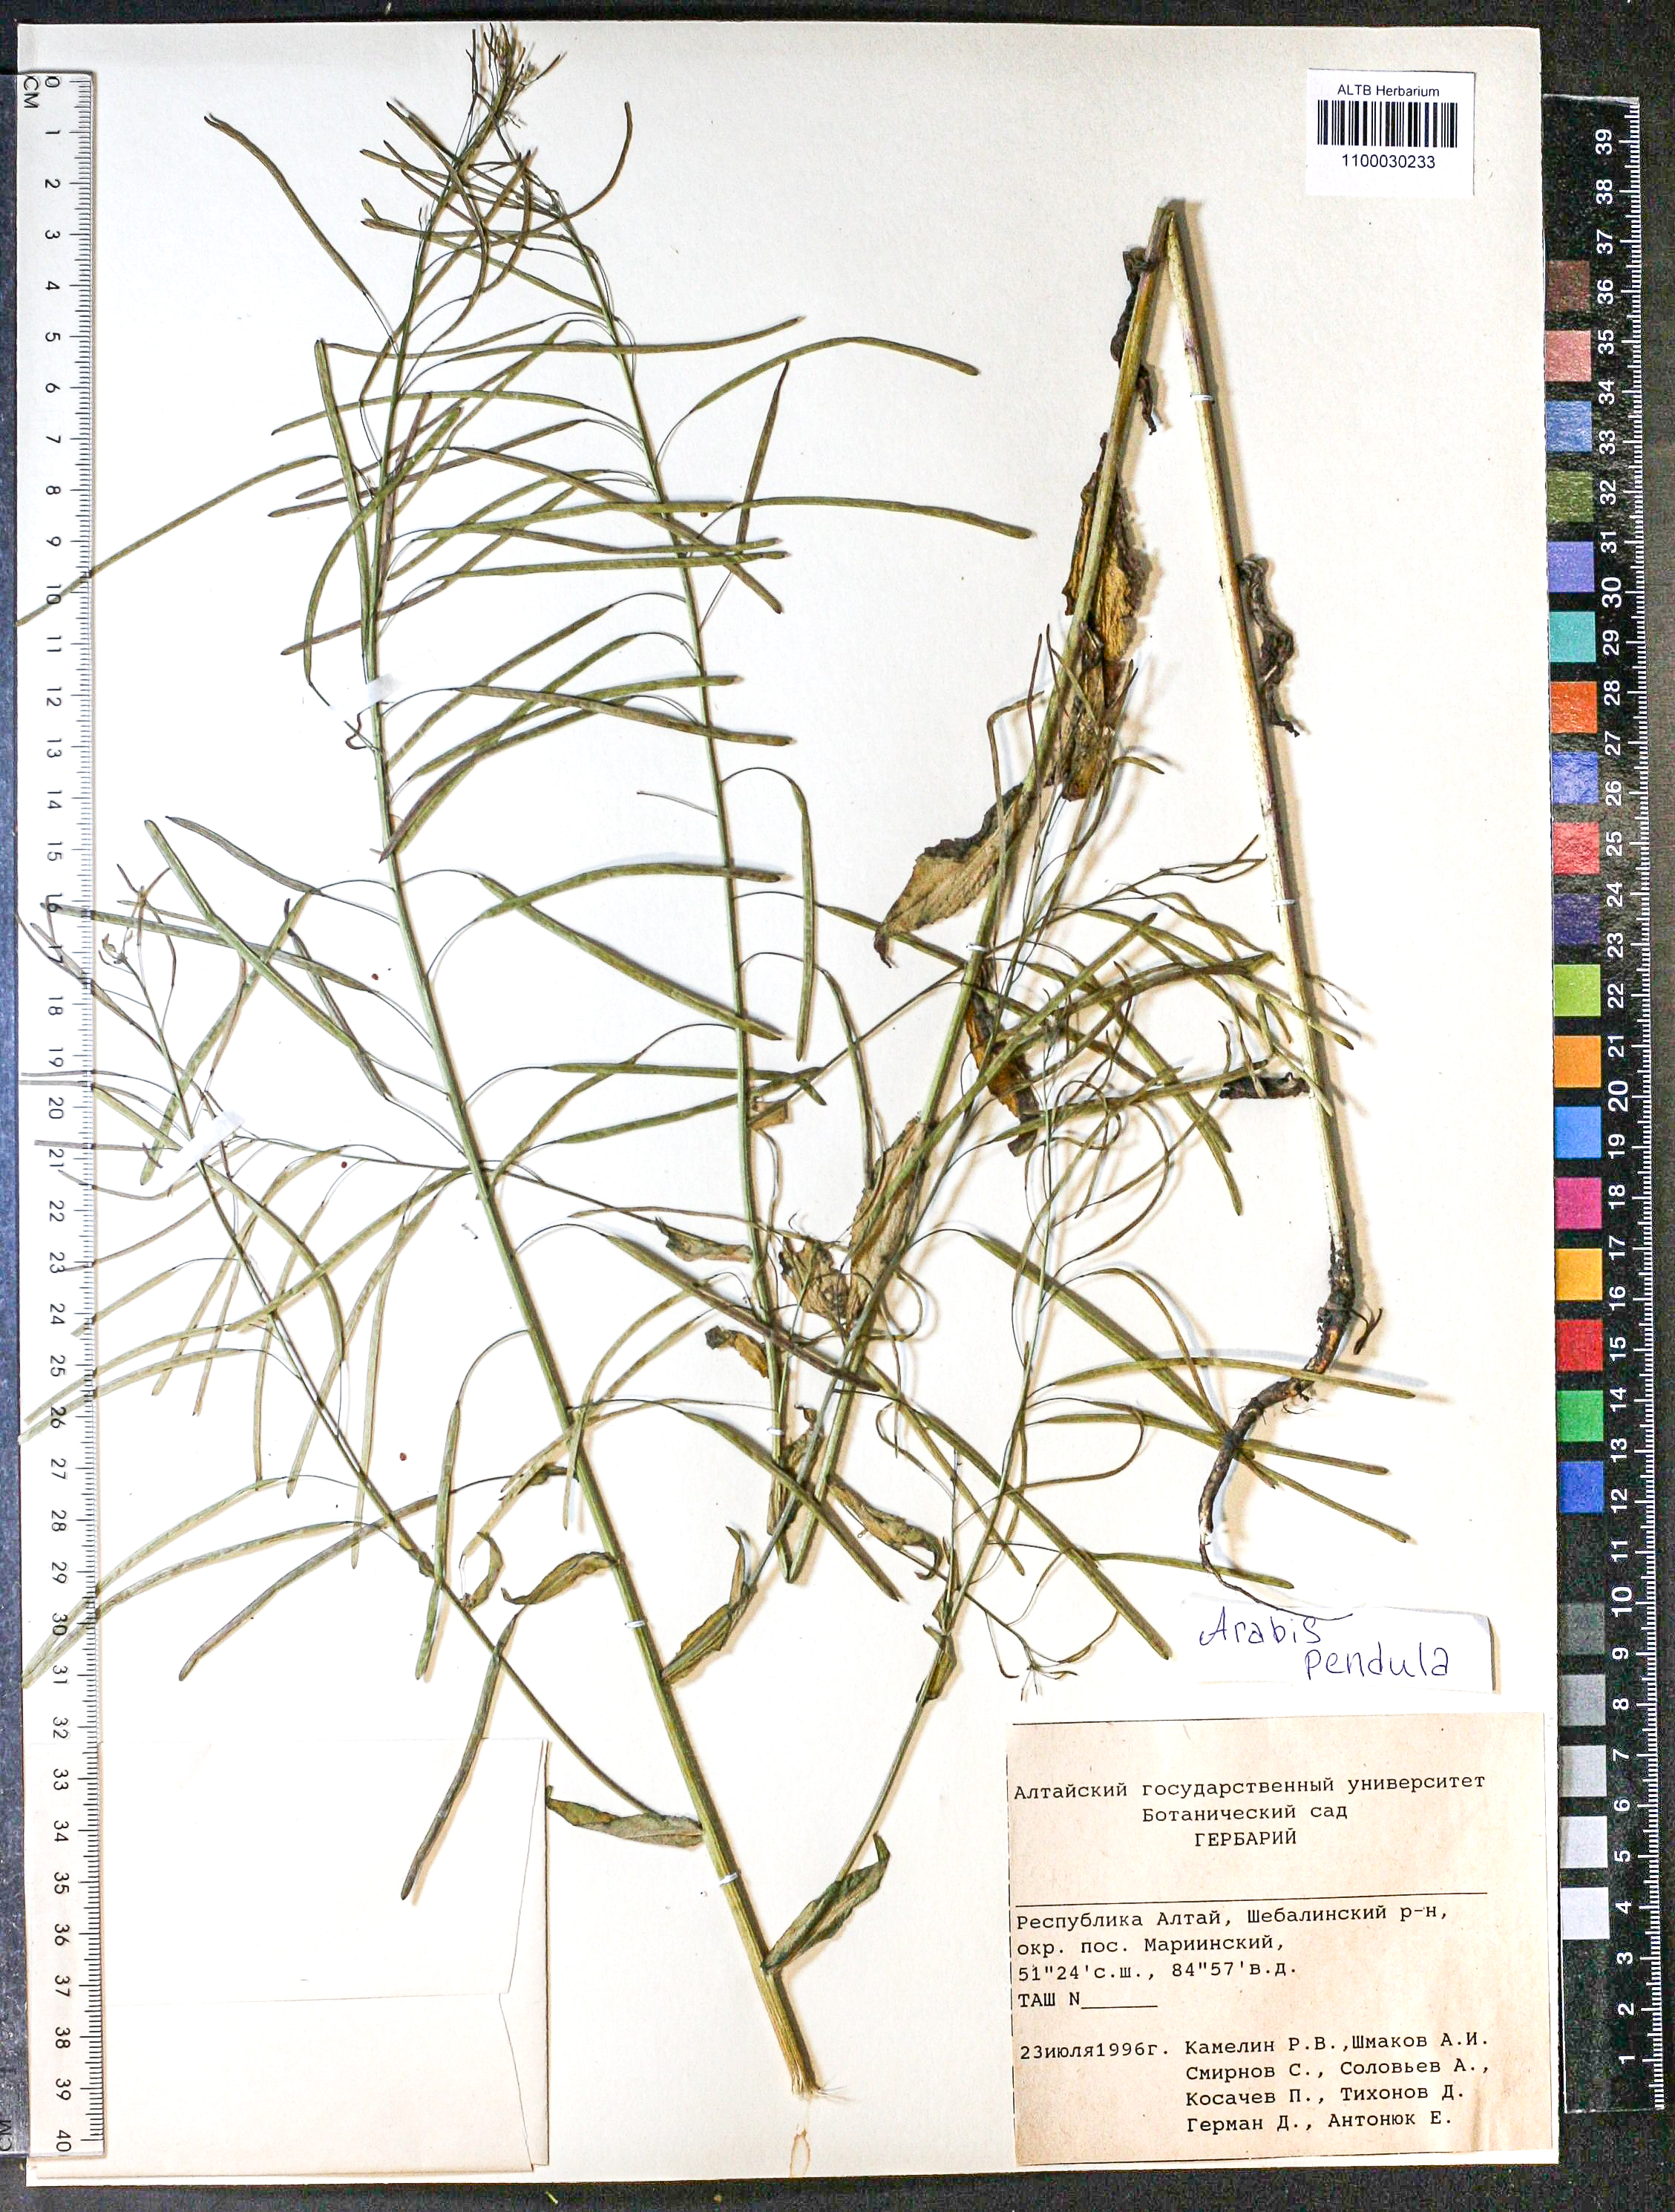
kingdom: Plantae
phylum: Tracheophyta
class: Magnoliopsida
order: Brassicales
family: Brassicaceae
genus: Catolobus
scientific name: Catolobus pendulus
